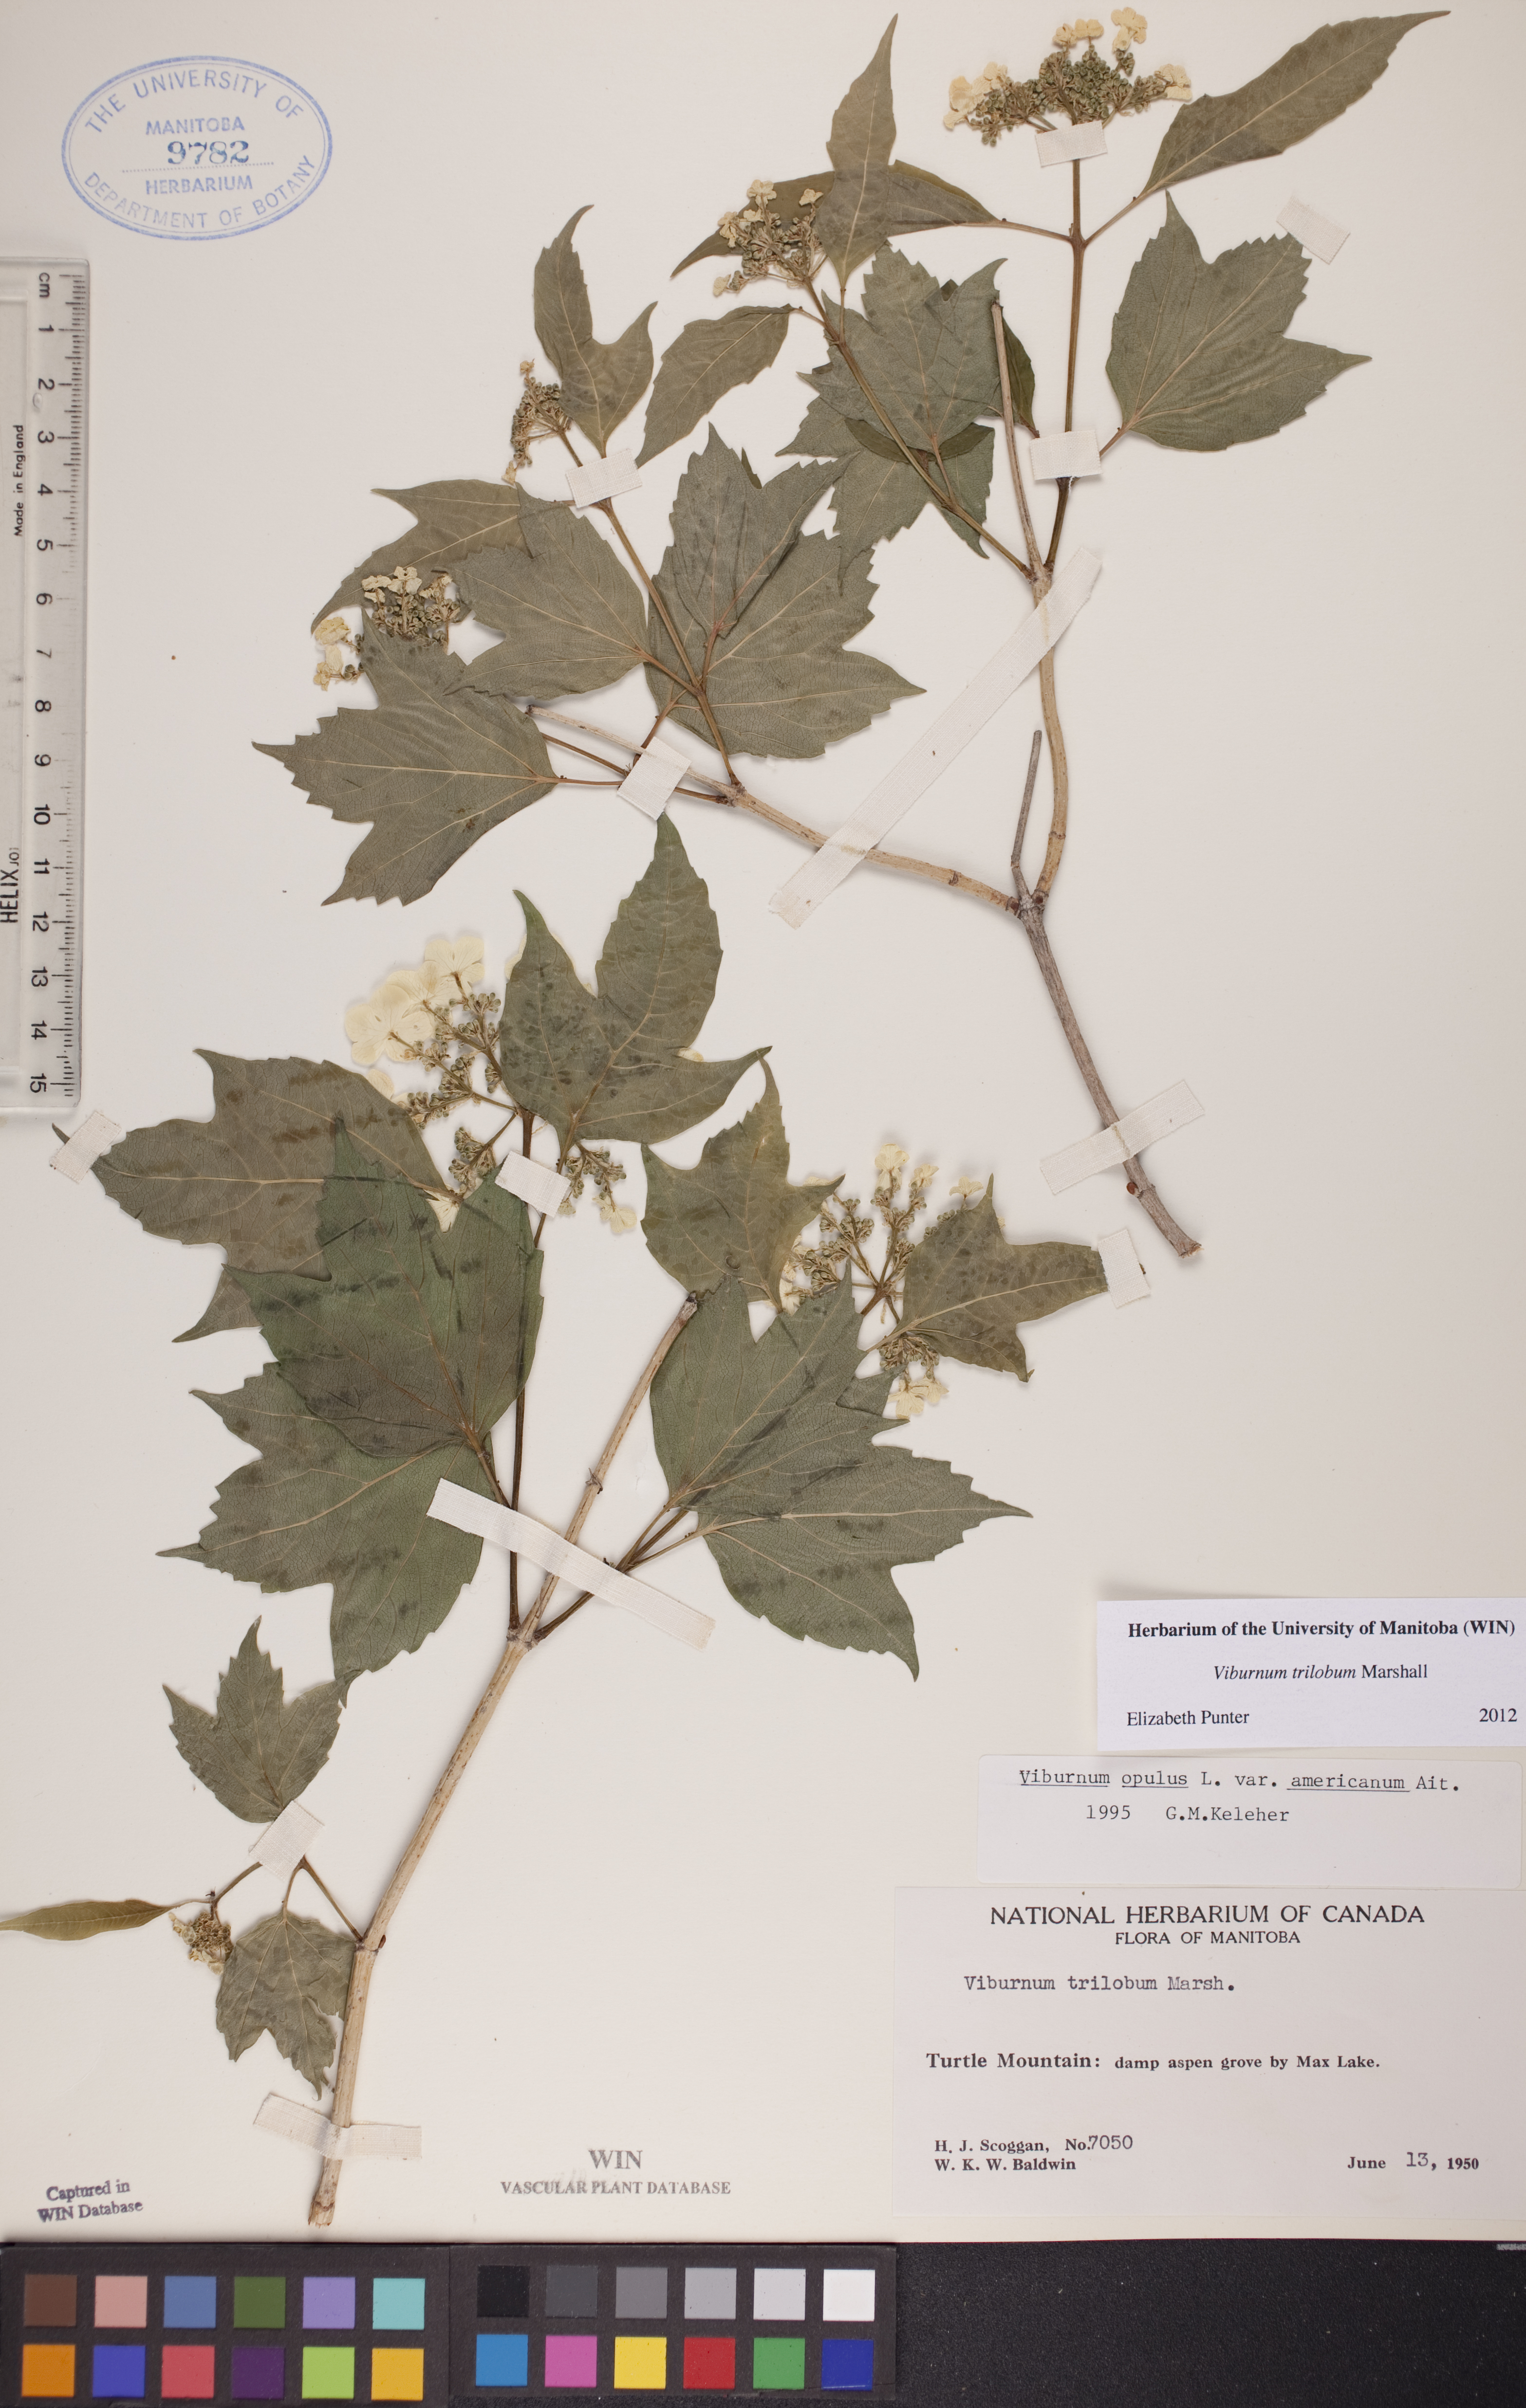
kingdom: Plantae
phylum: Tracheophyta
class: Magnoliopsida
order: Dipsacales
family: Viburnaceae
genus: Viburnum
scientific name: Viburnum trilobum
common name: American cranberrybush
